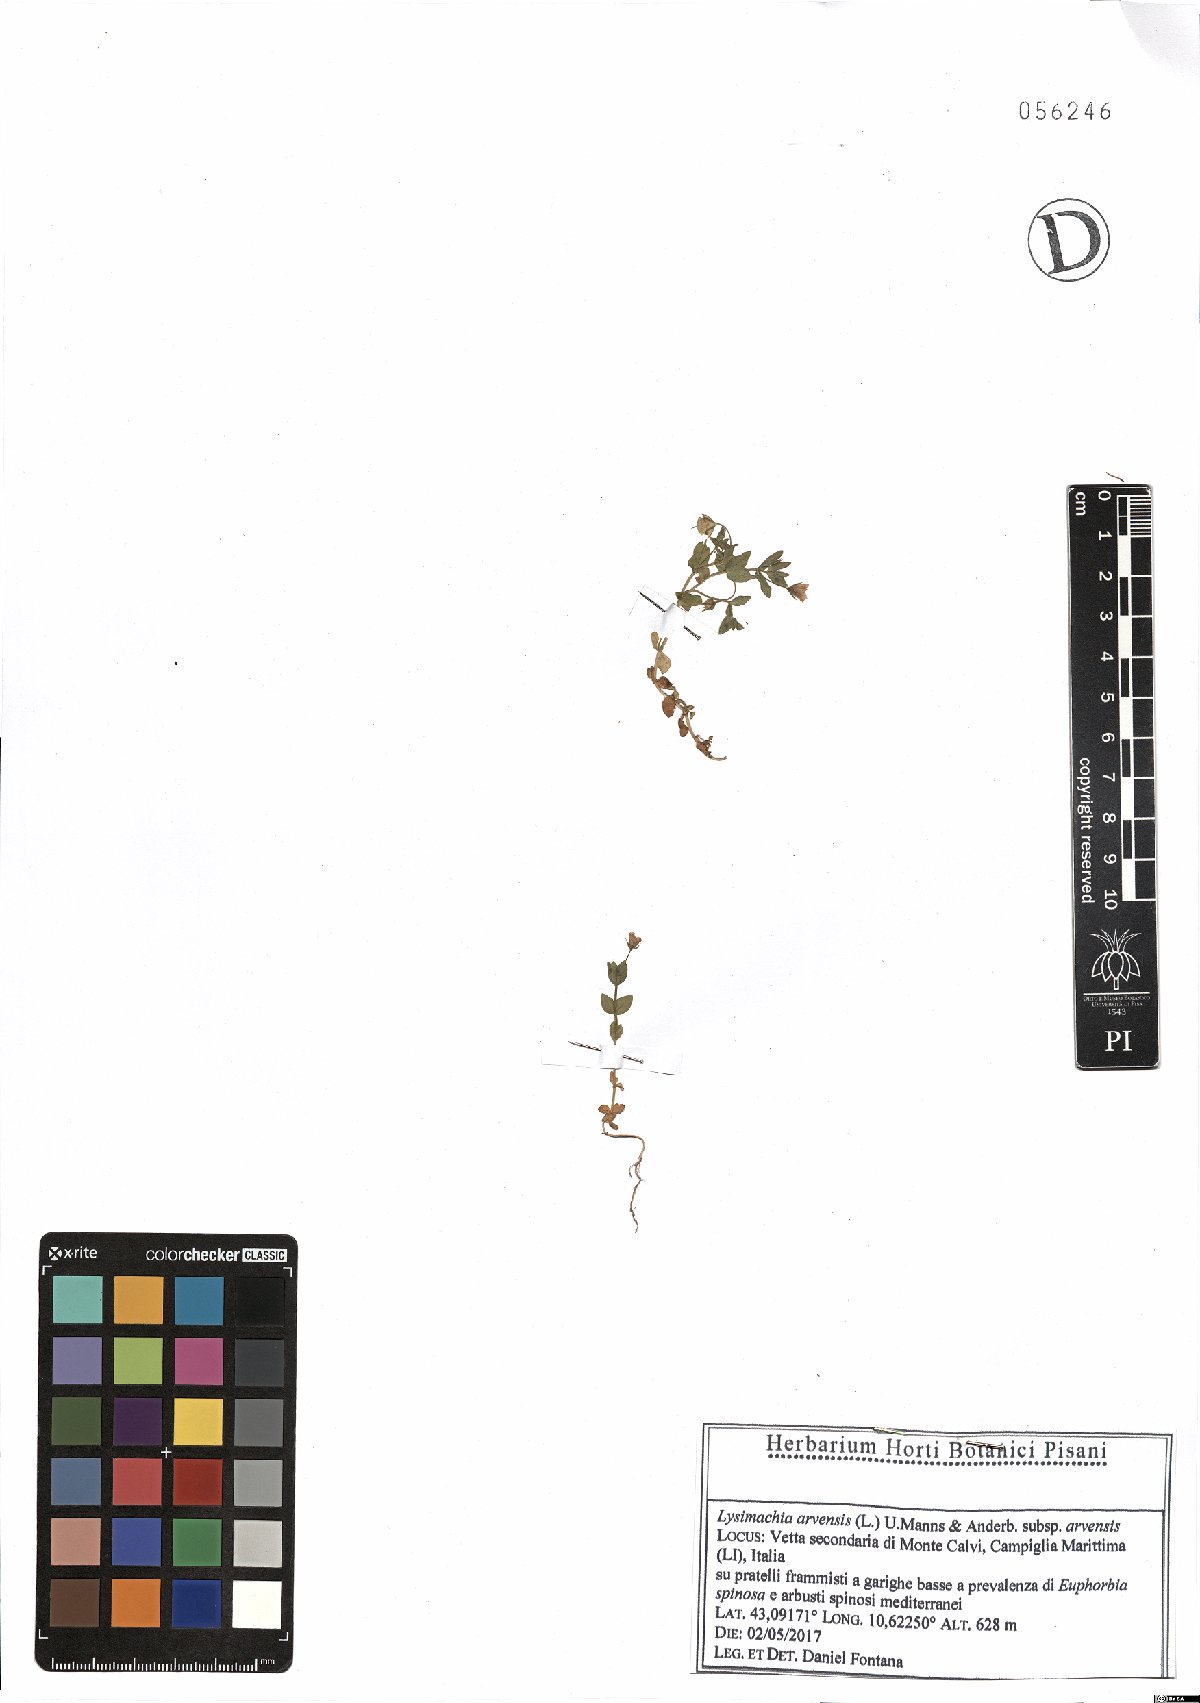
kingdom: Plantae
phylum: Tracheophyta
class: Magnoliopsida
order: Ericales
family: Primulaceae
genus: Lysimachia
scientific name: Lysimachia arvensis
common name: Scarlet pimpernel
